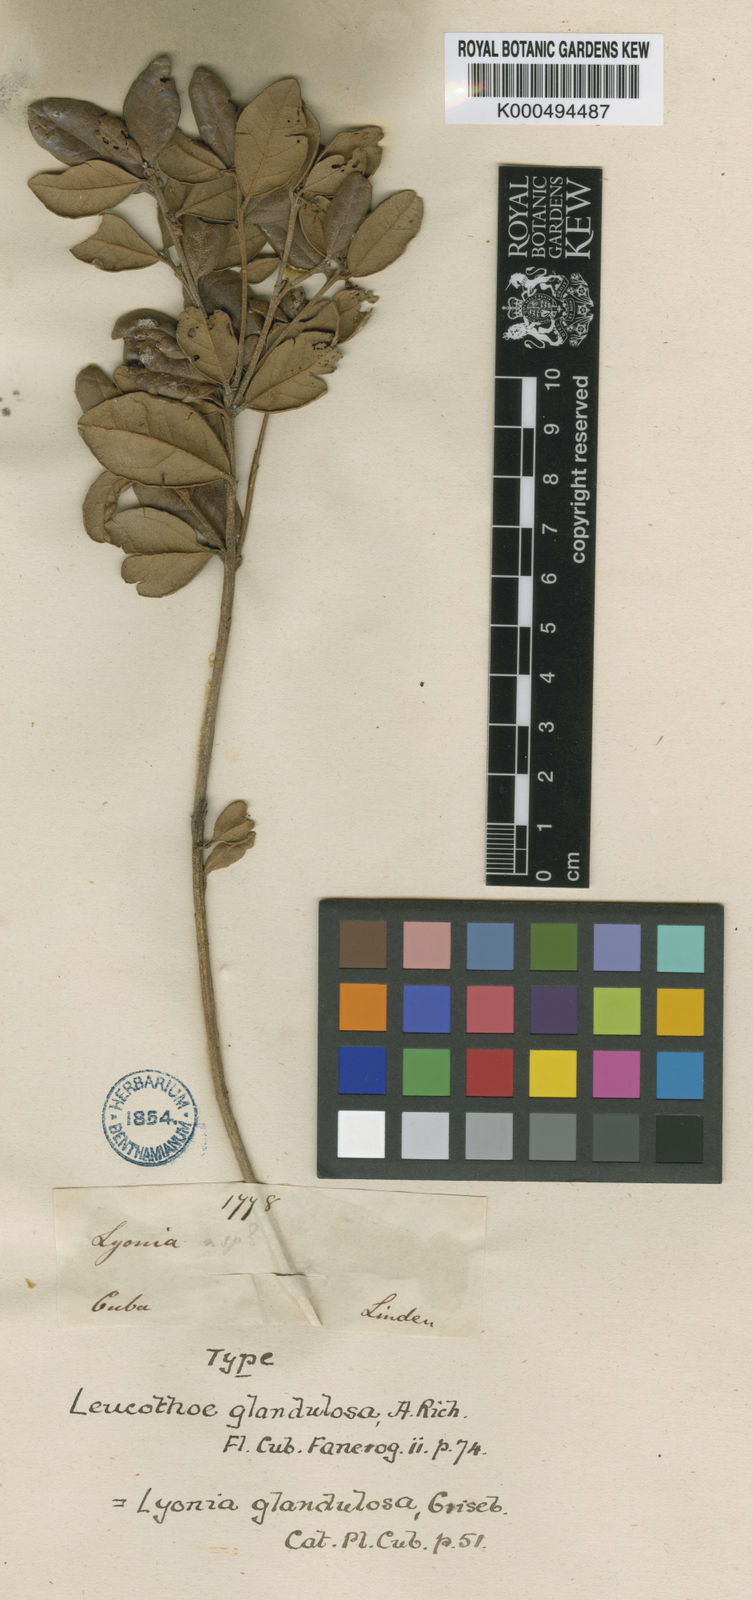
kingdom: Plantae
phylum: Tracheophyta
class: Magnoliopsida
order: Ericales
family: Ericaceae
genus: Lyonia
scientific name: Lyonia
